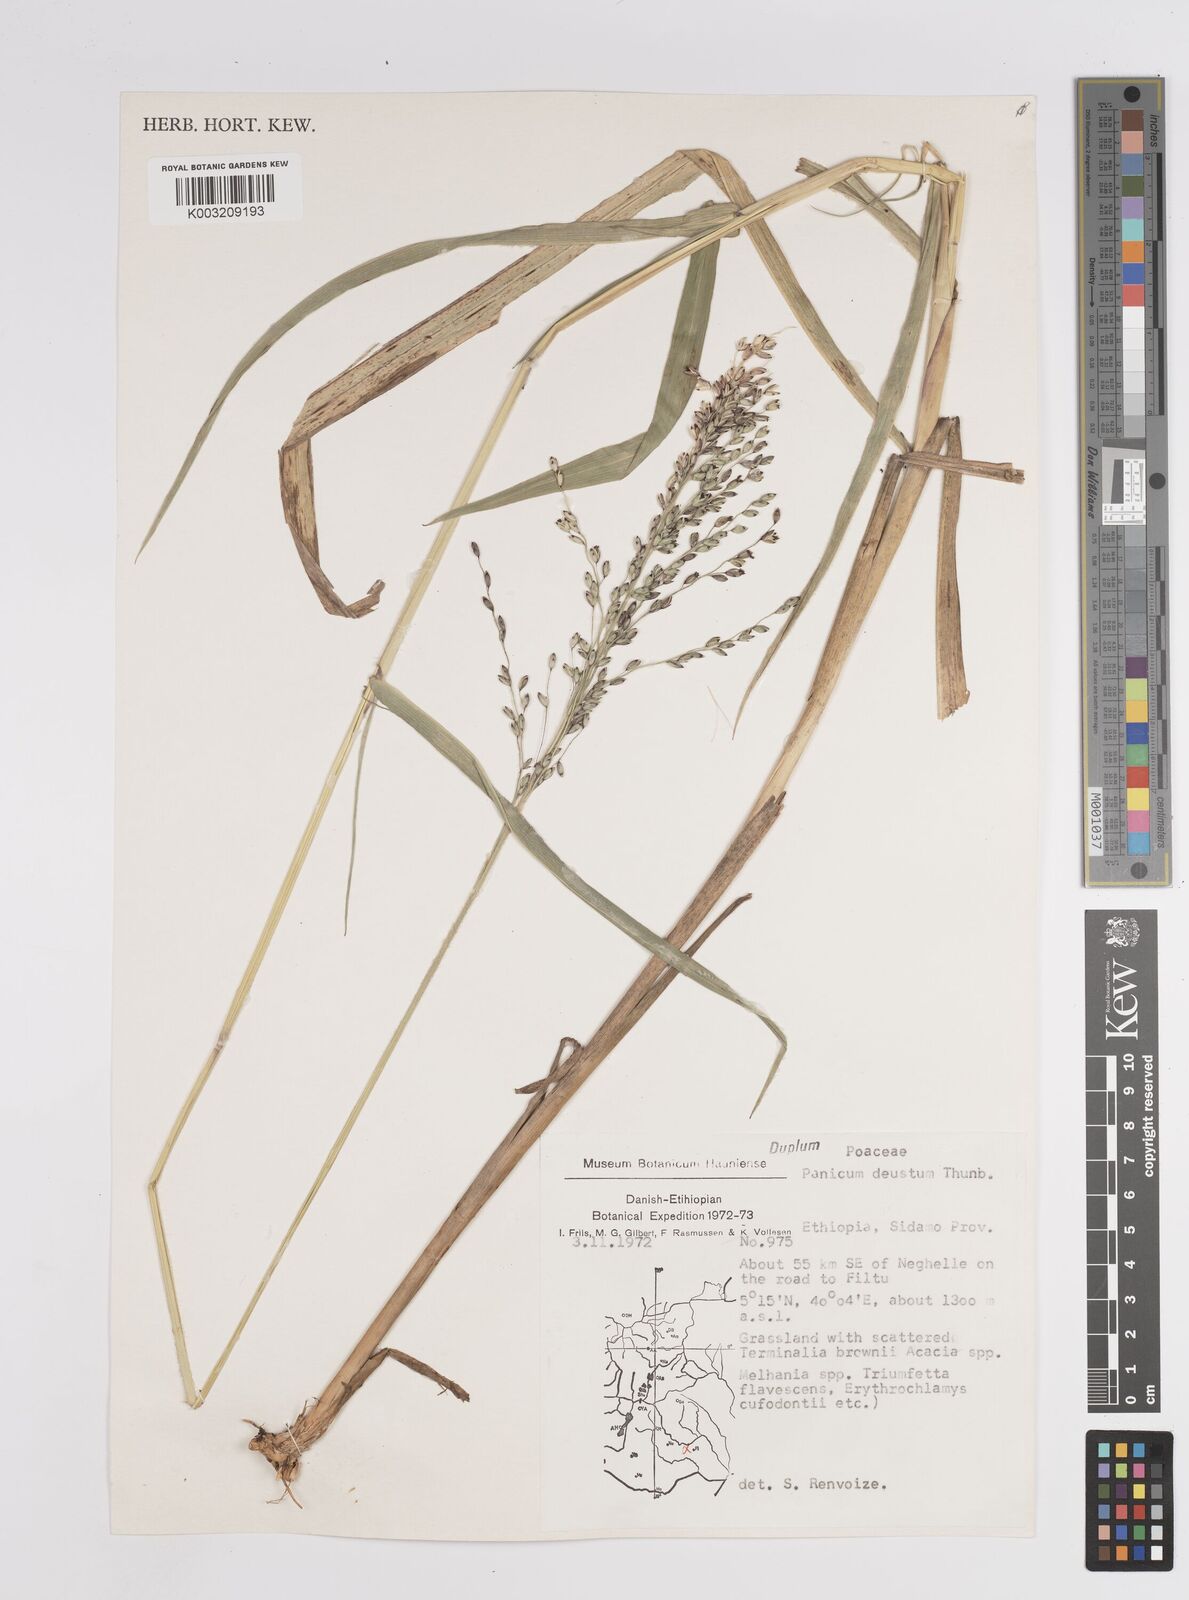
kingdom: Plantae
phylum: Tracheophyta
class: Liliopsida
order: Poales
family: Poaceae
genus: Panicum
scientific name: Panicum
